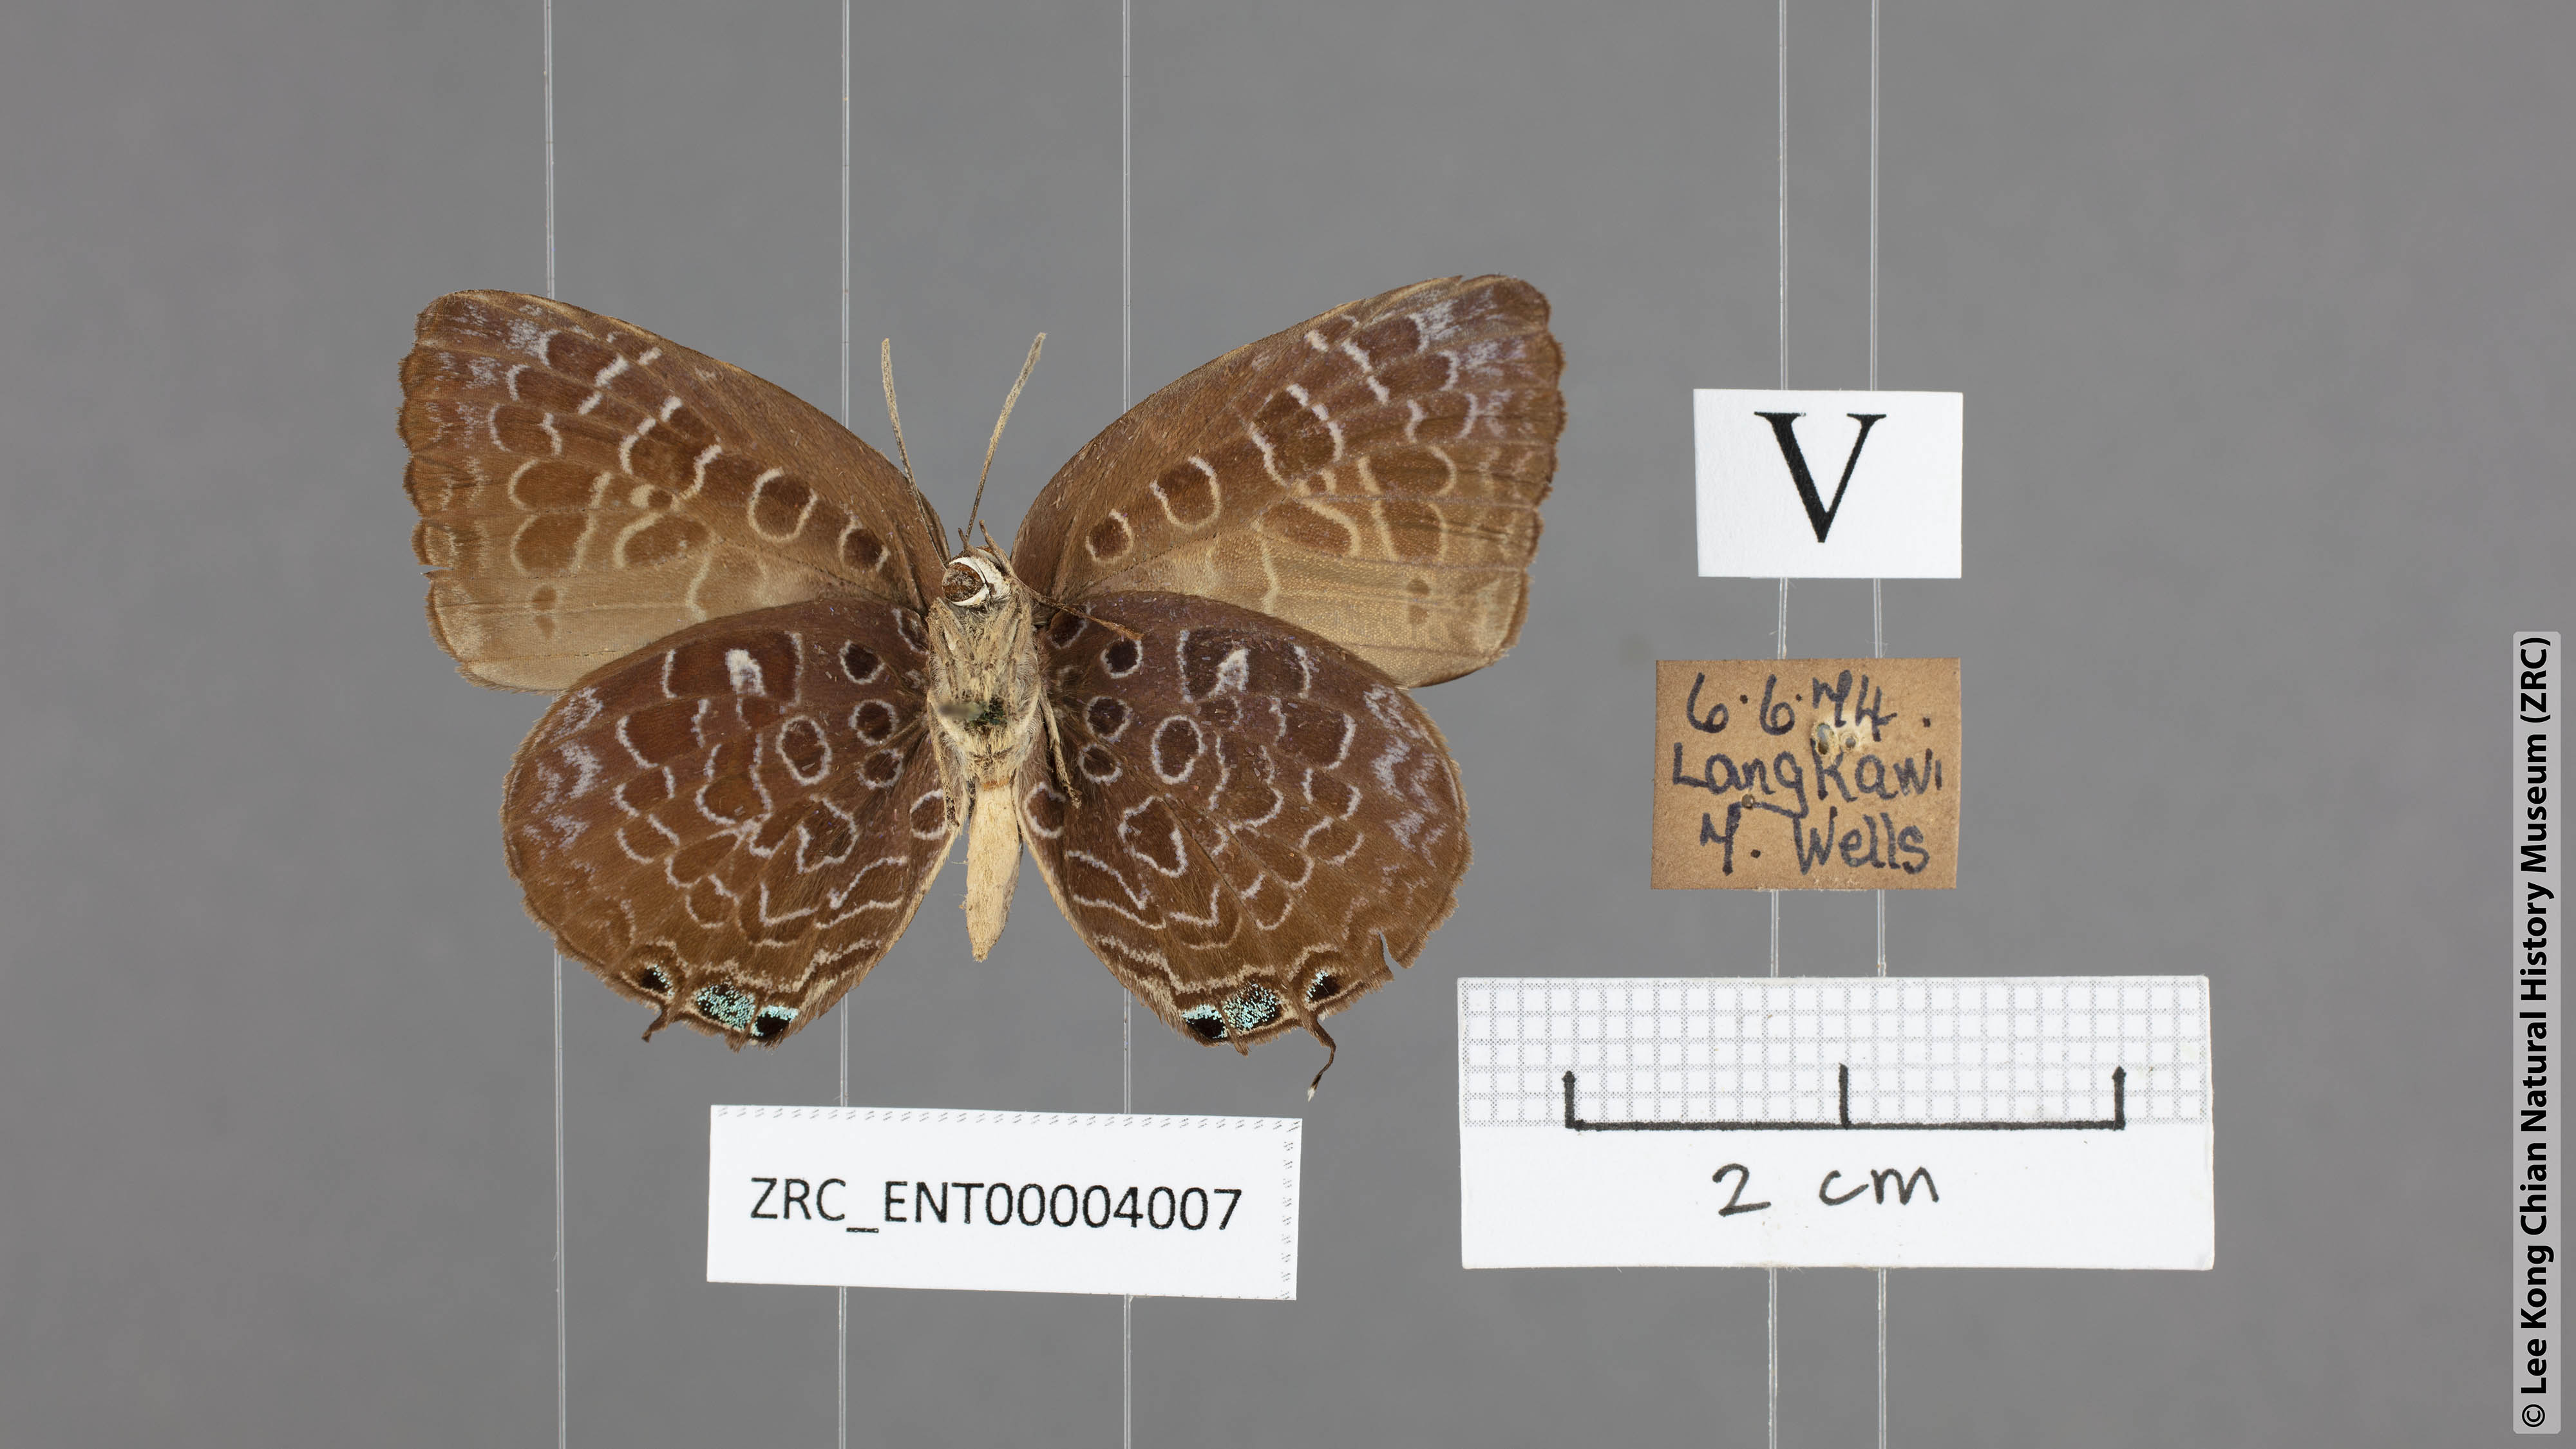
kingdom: Animalia
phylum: Arthropoda
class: Insecta
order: Lepidoptera
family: Lycaenidae
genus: Arhopala
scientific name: Arhopala myrzala
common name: Malayan oakblue
